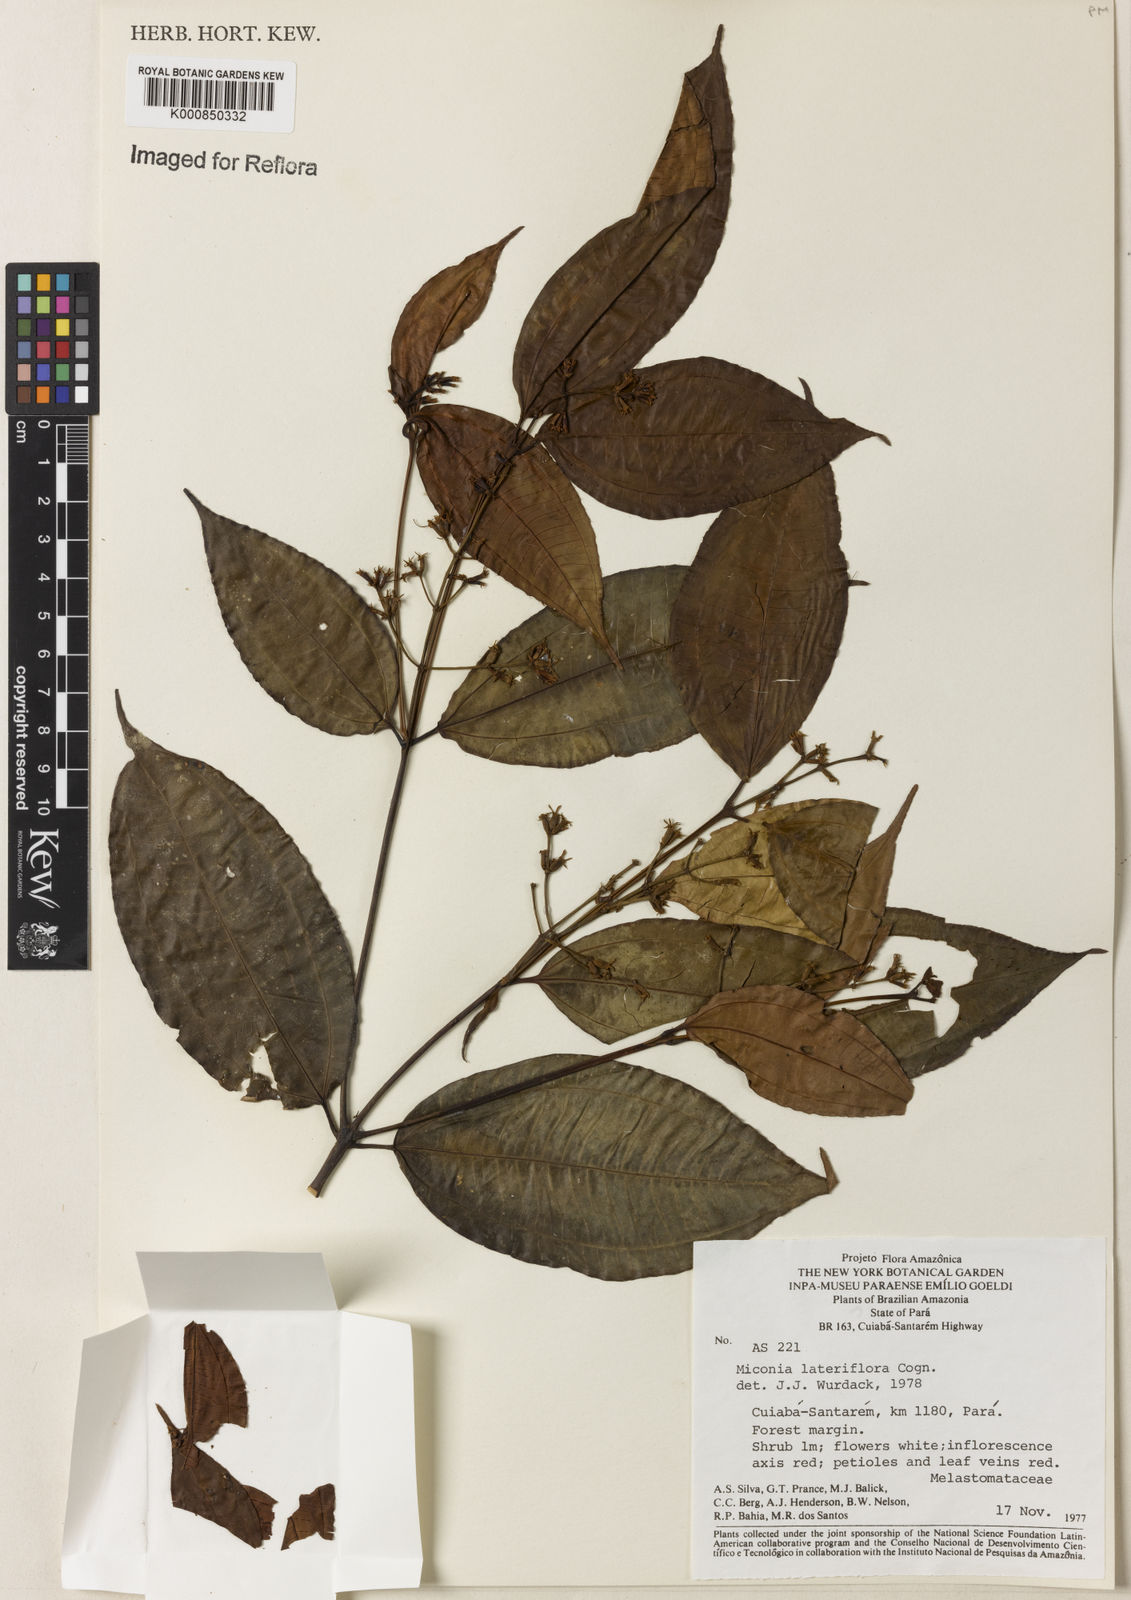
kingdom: Plantae
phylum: Tracheophyta
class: Magnoliopsida
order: Myrtales
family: Melastomataceae
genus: Miconia
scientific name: Miconia lateriflora
